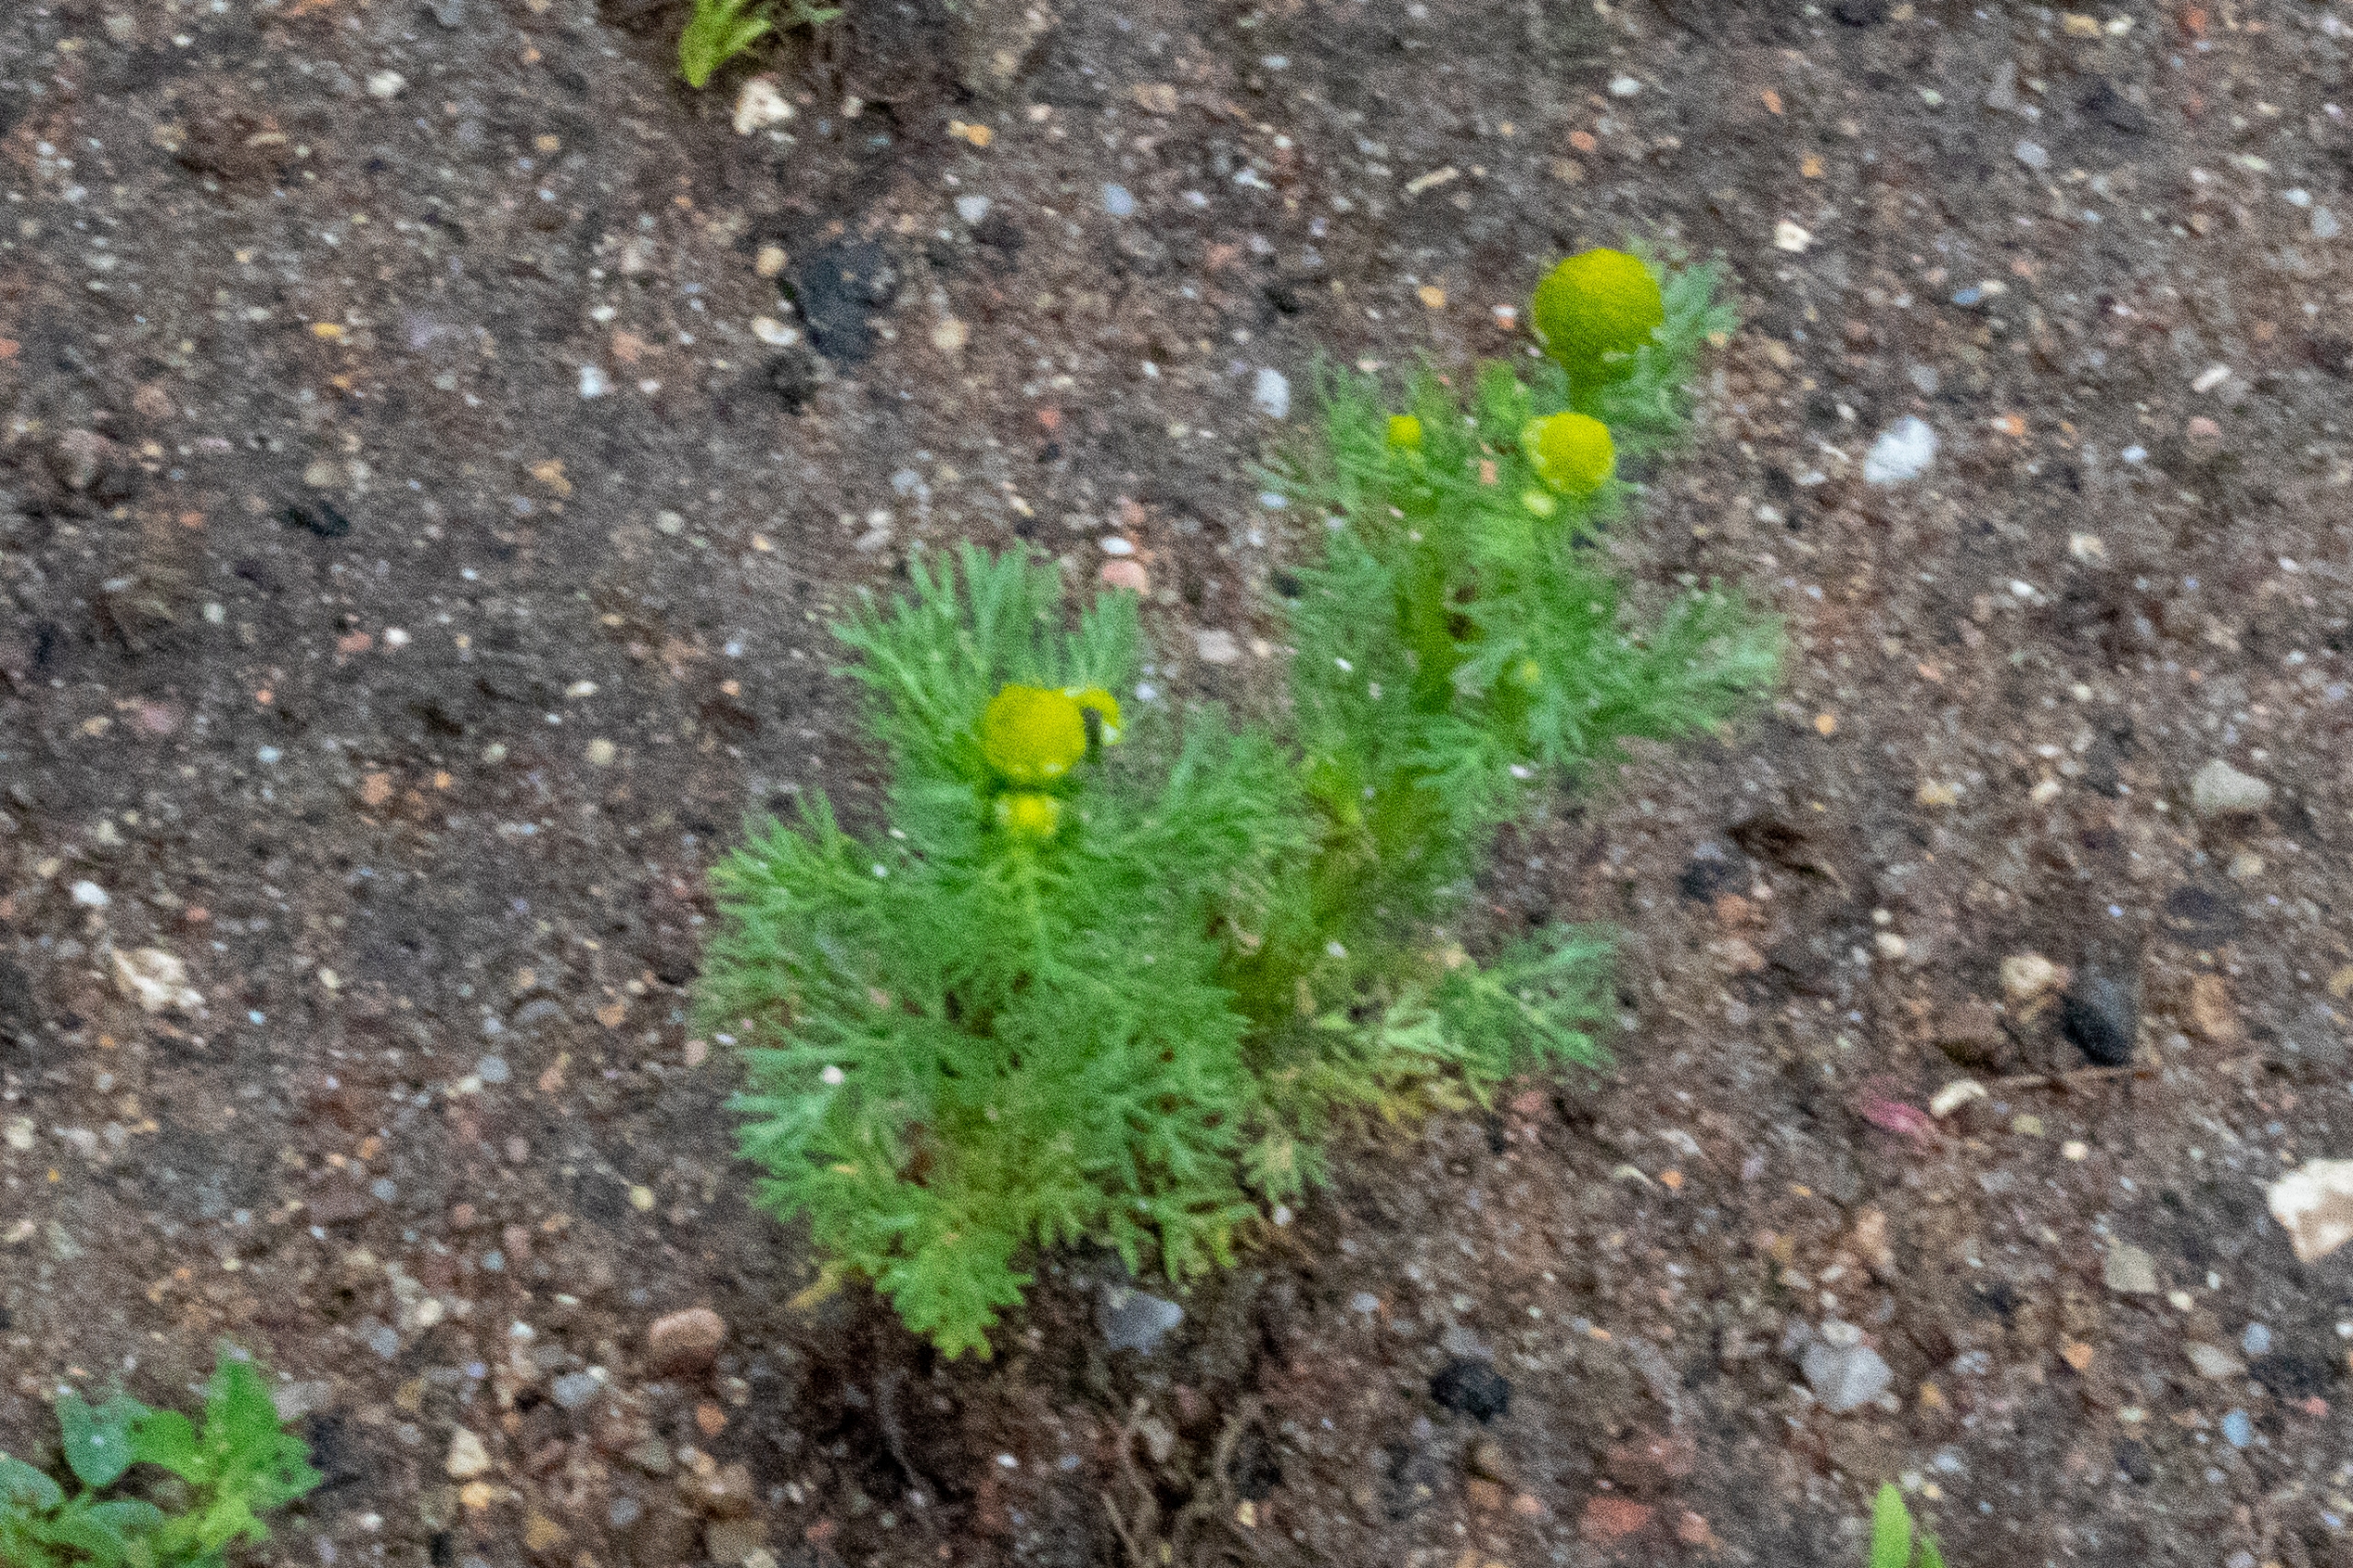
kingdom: Plantae
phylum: Tracheophyta
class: Magnoliopsida
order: Asterales
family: Asteraceae
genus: Matricaria
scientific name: Matricaria discoidea
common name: Skive-kamille
